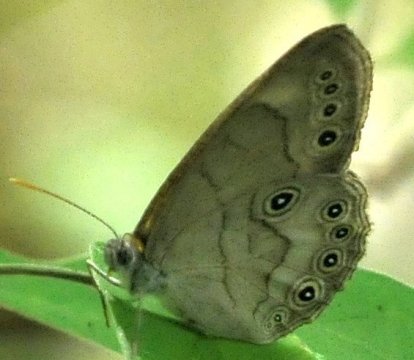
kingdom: Animalia
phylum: Arthropoda
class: Insecta
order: Lepidoptera
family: Nymphalidae
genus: Lethe
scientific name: Lethe eurydice
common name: Appalachian Eyed Brown
